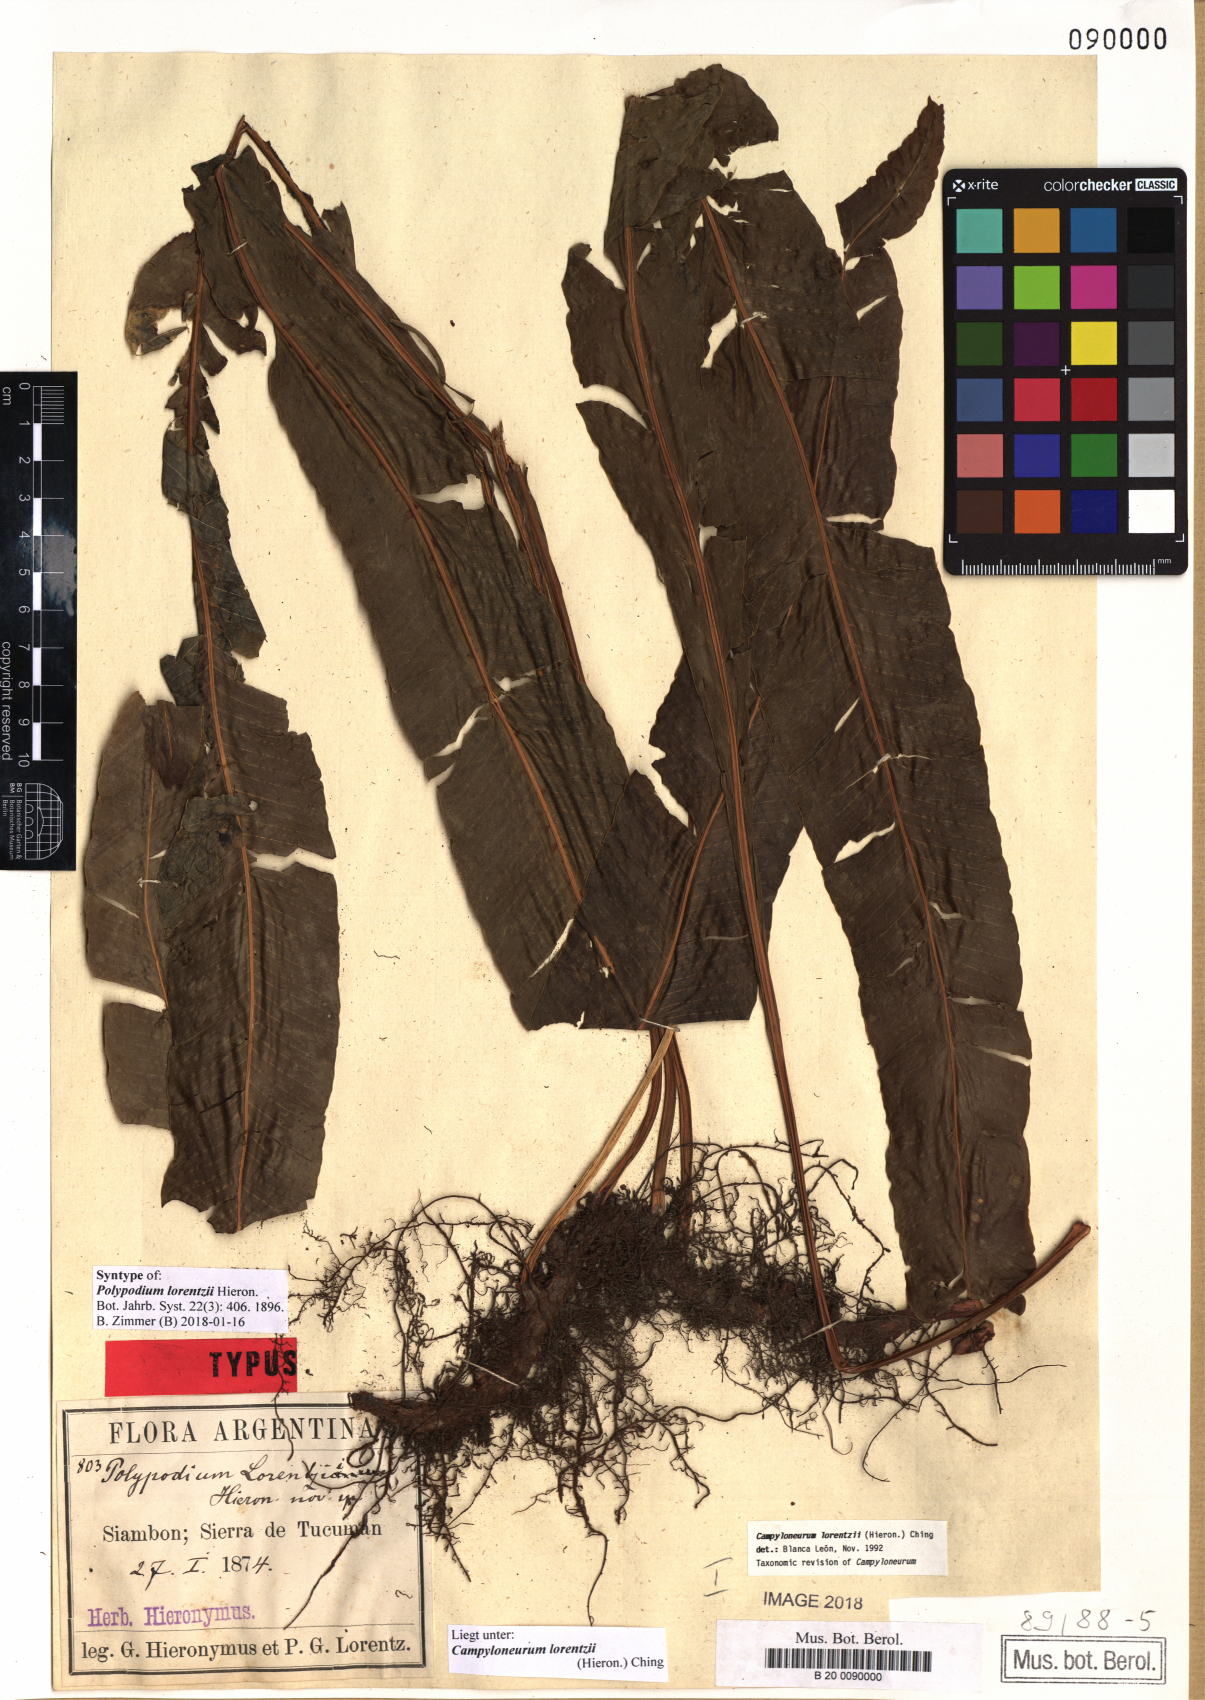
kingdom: Plantae
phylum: Tracheophyta
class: Polypodiopsida
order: Polypodiales
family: Polypodiaceae
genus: Campyloneurum
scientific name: Campyloneurum lorentzii
